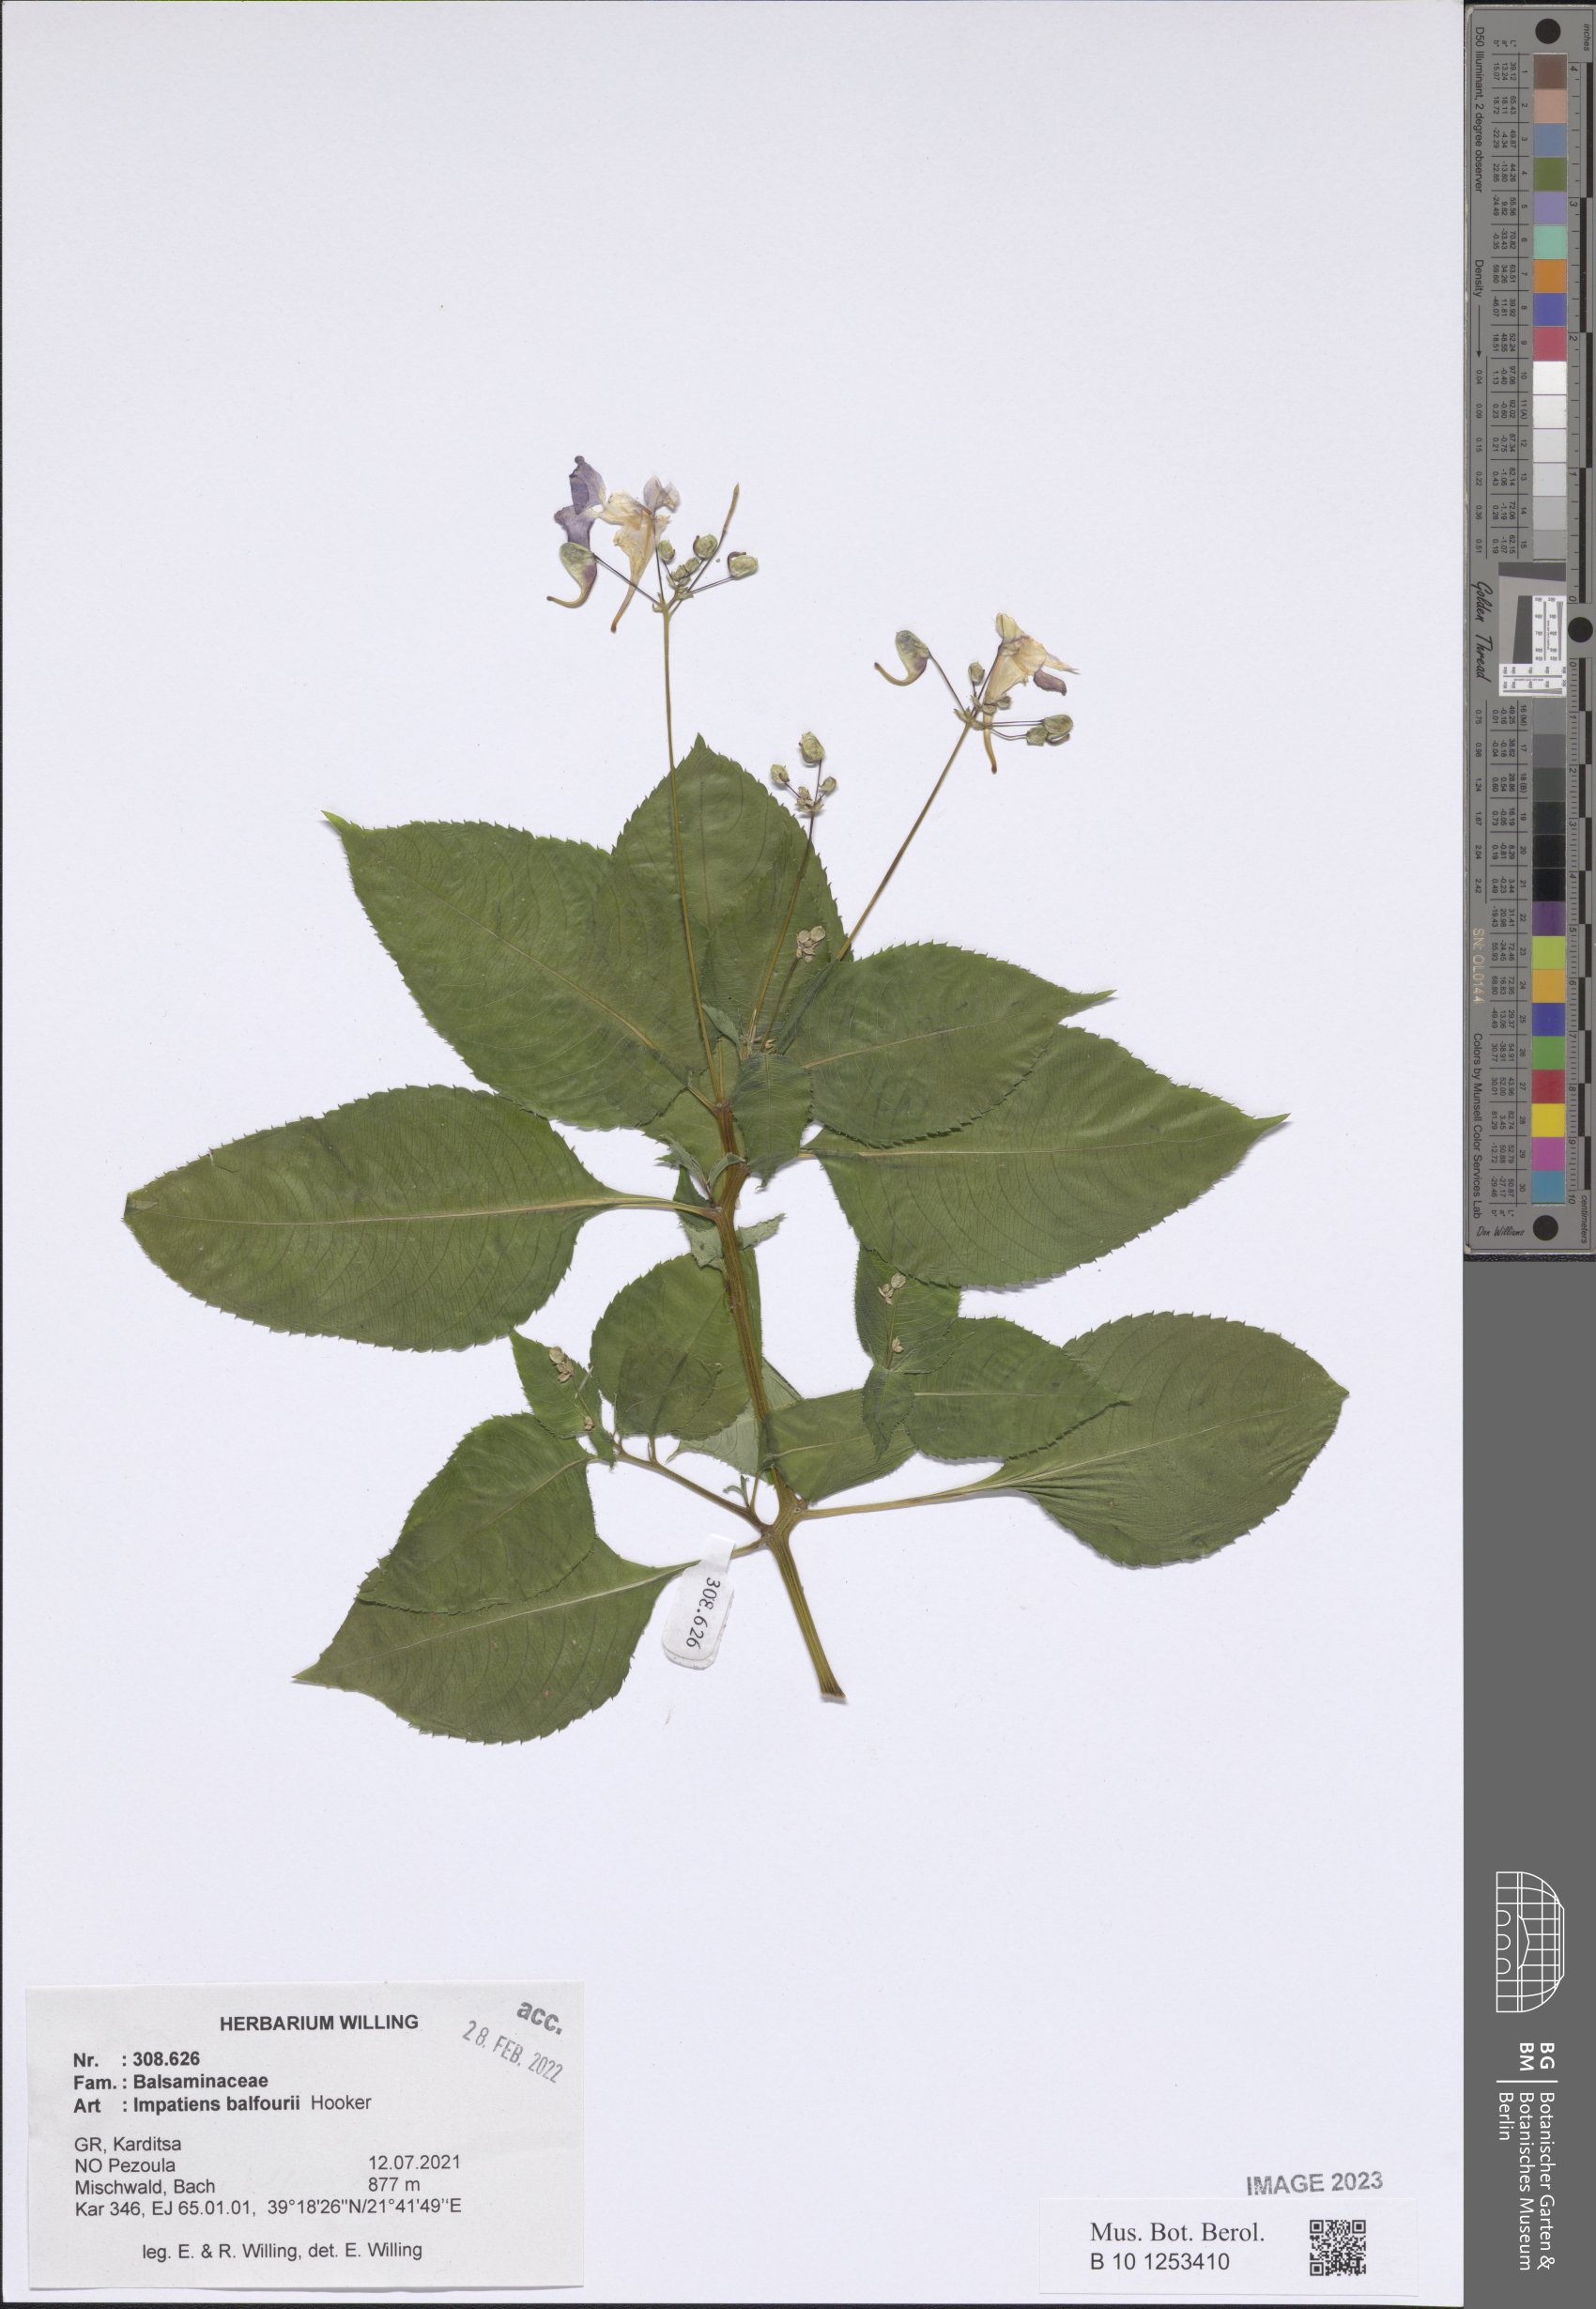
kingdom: Plantae
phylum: Tracheophyta
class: Magnoliopsida
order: Ericales
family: Balsaminaceae
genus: Impatiens
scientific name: Impatiens balfourii
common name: Balfour's touch-me-not
